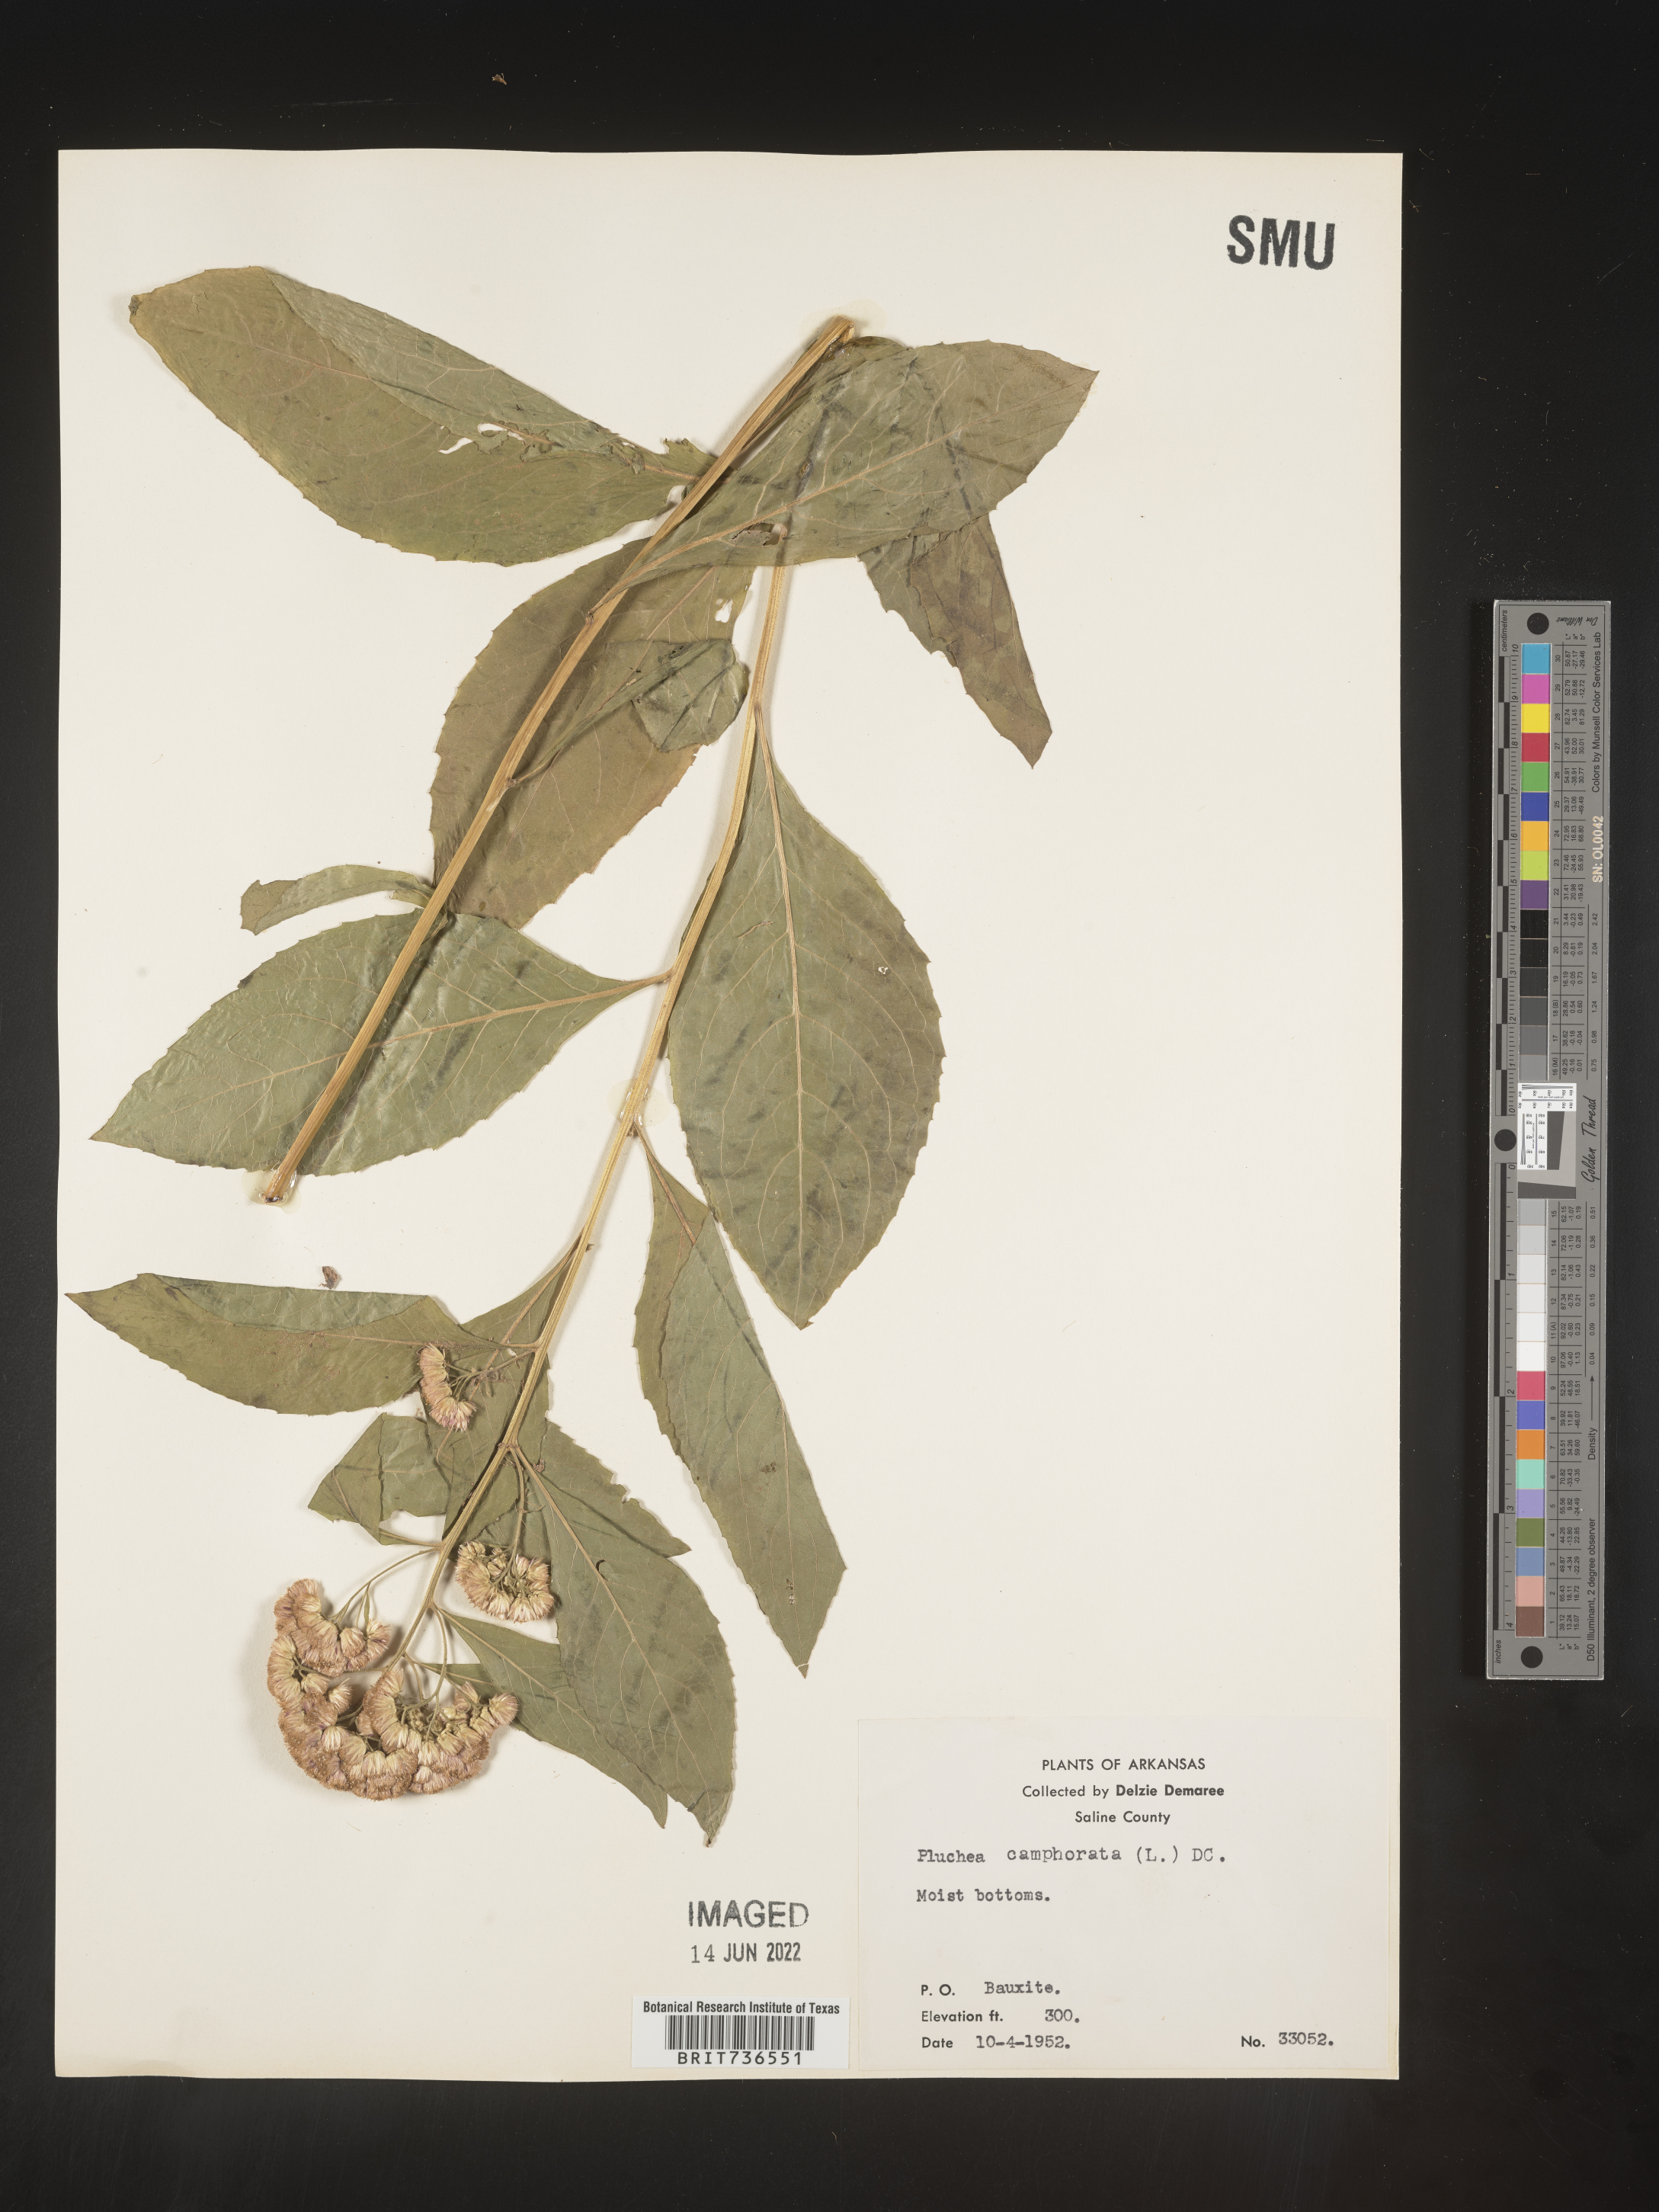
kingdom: Plantae
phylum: Tracheophyta
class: Magnoliopsida
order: Asterales
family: Asteraceae
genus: Pluchea
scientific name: Pluchea camphorata
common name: Camphor pluchea
